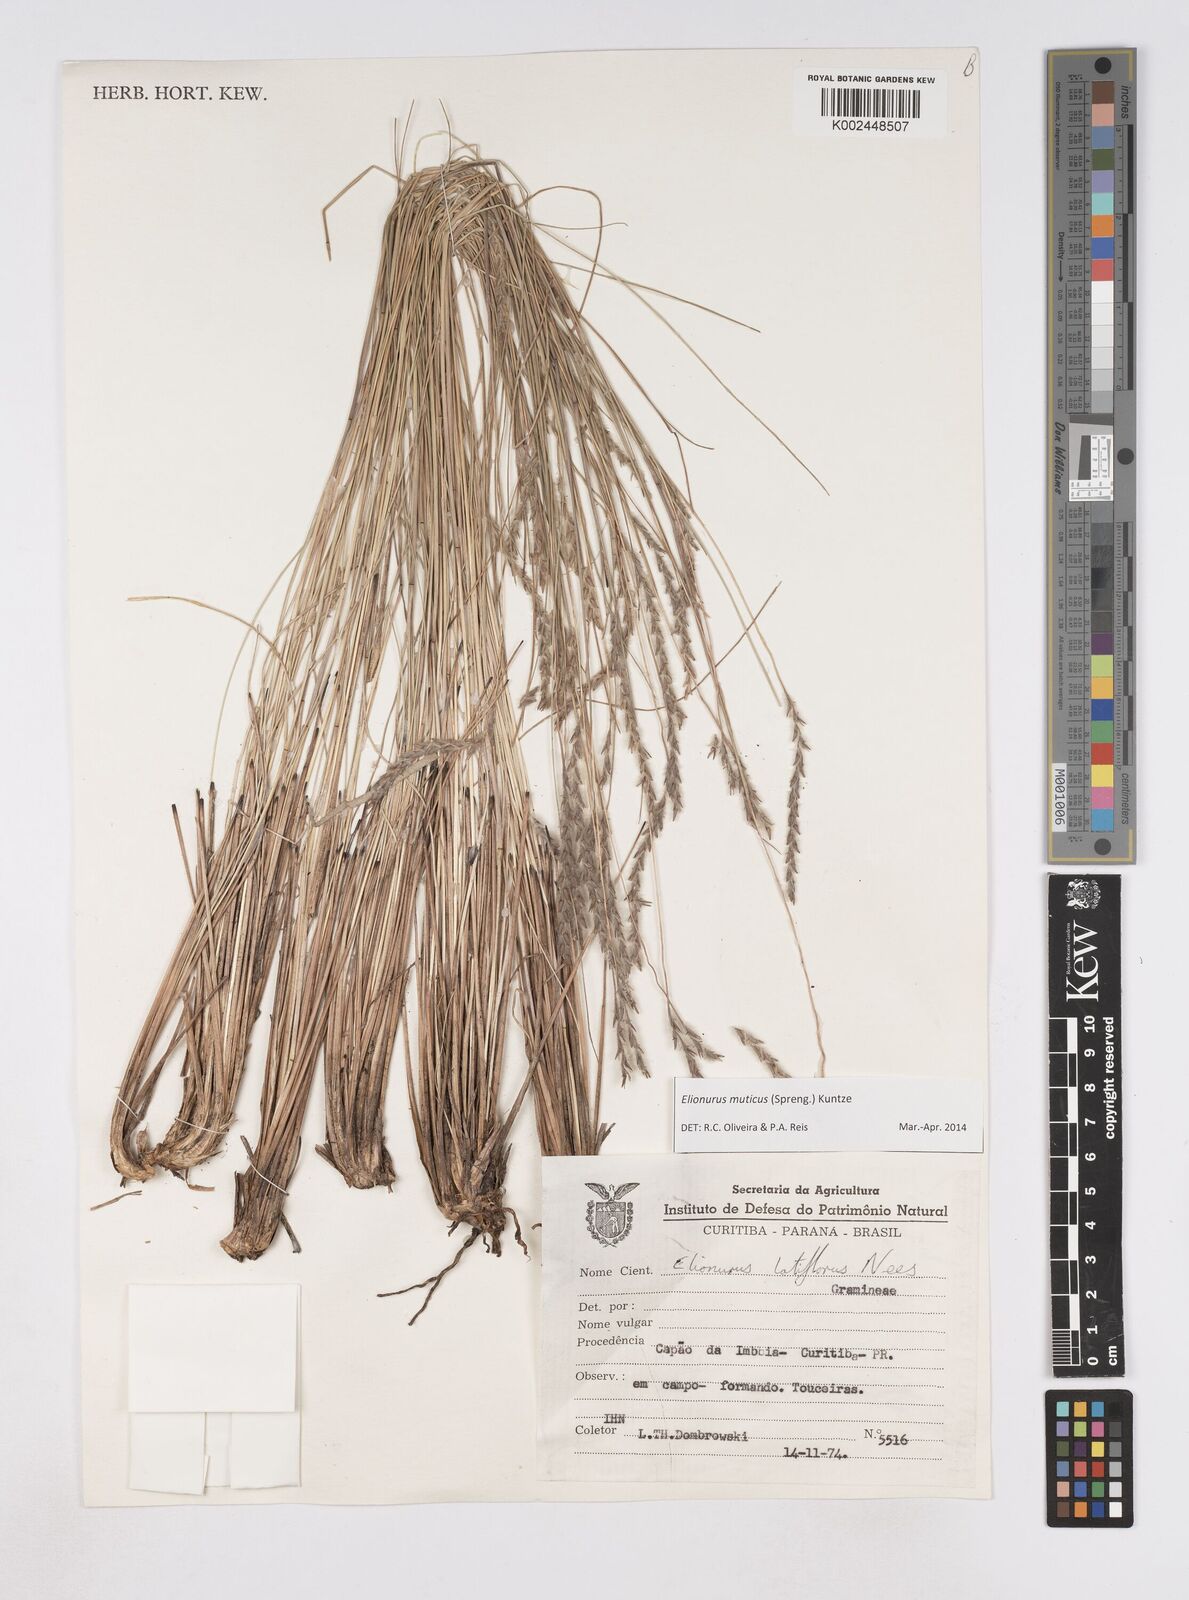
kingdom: Plantae
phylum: Tracheophyta
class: Liliopsida
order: Poales
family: Poaceae
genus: Elionurus
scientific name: Elionurus muticus
